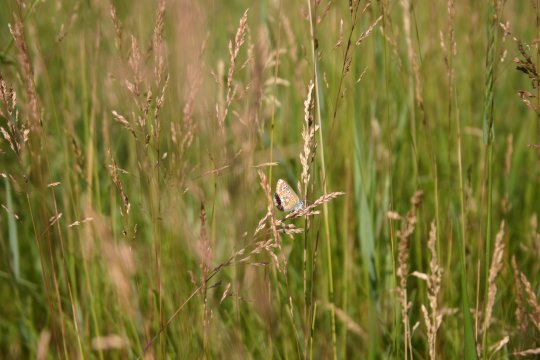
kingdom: Animalia
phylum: Arthropoda
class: Insecta
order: Lepidoptera
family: Lycaenidae
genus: Polyommatus
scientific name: Polyommatus icarus
